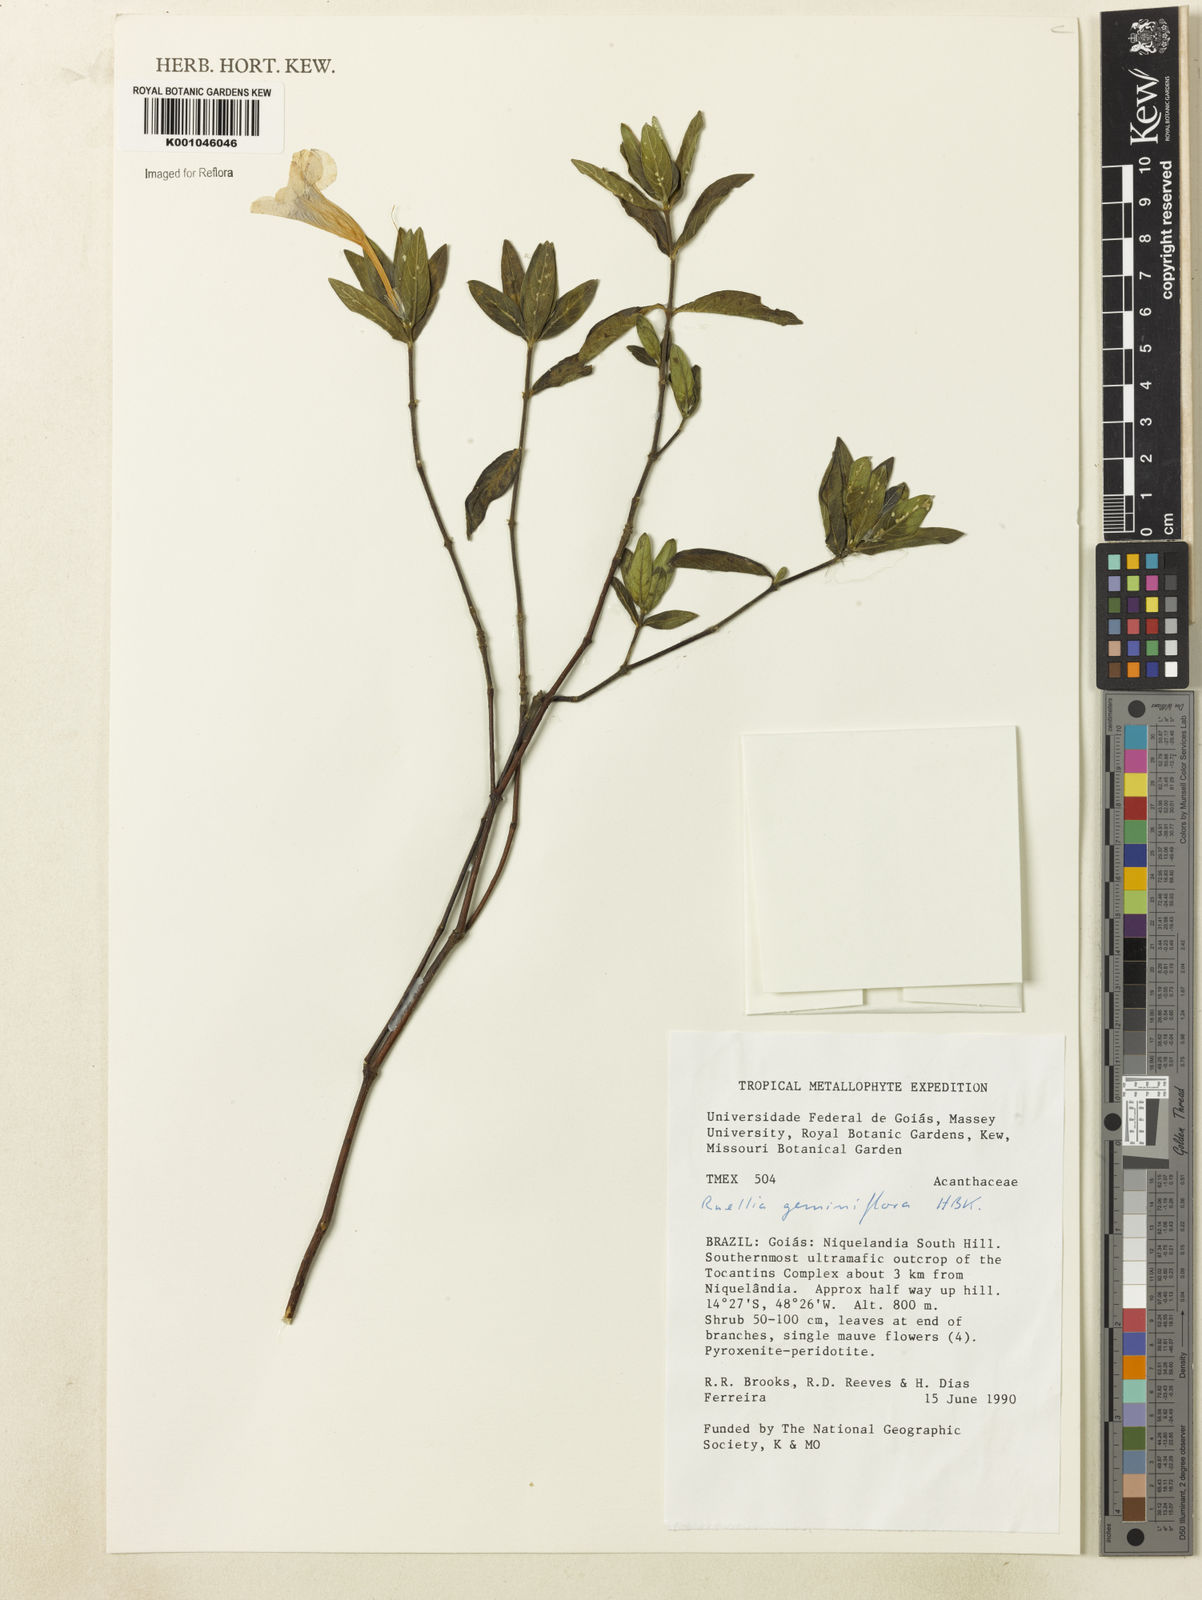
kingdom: Plantae
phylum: Tracheophyta
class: Magnoliopsida
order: Lamiales
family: Acanthaceae
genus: Ruellia
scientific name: Ruellia geminiflora
